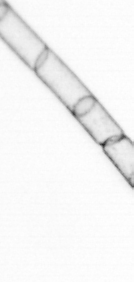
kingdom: Chromista
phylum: Ochrophyta
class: Bacillariophyceae
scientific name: Bacillariophyceae
